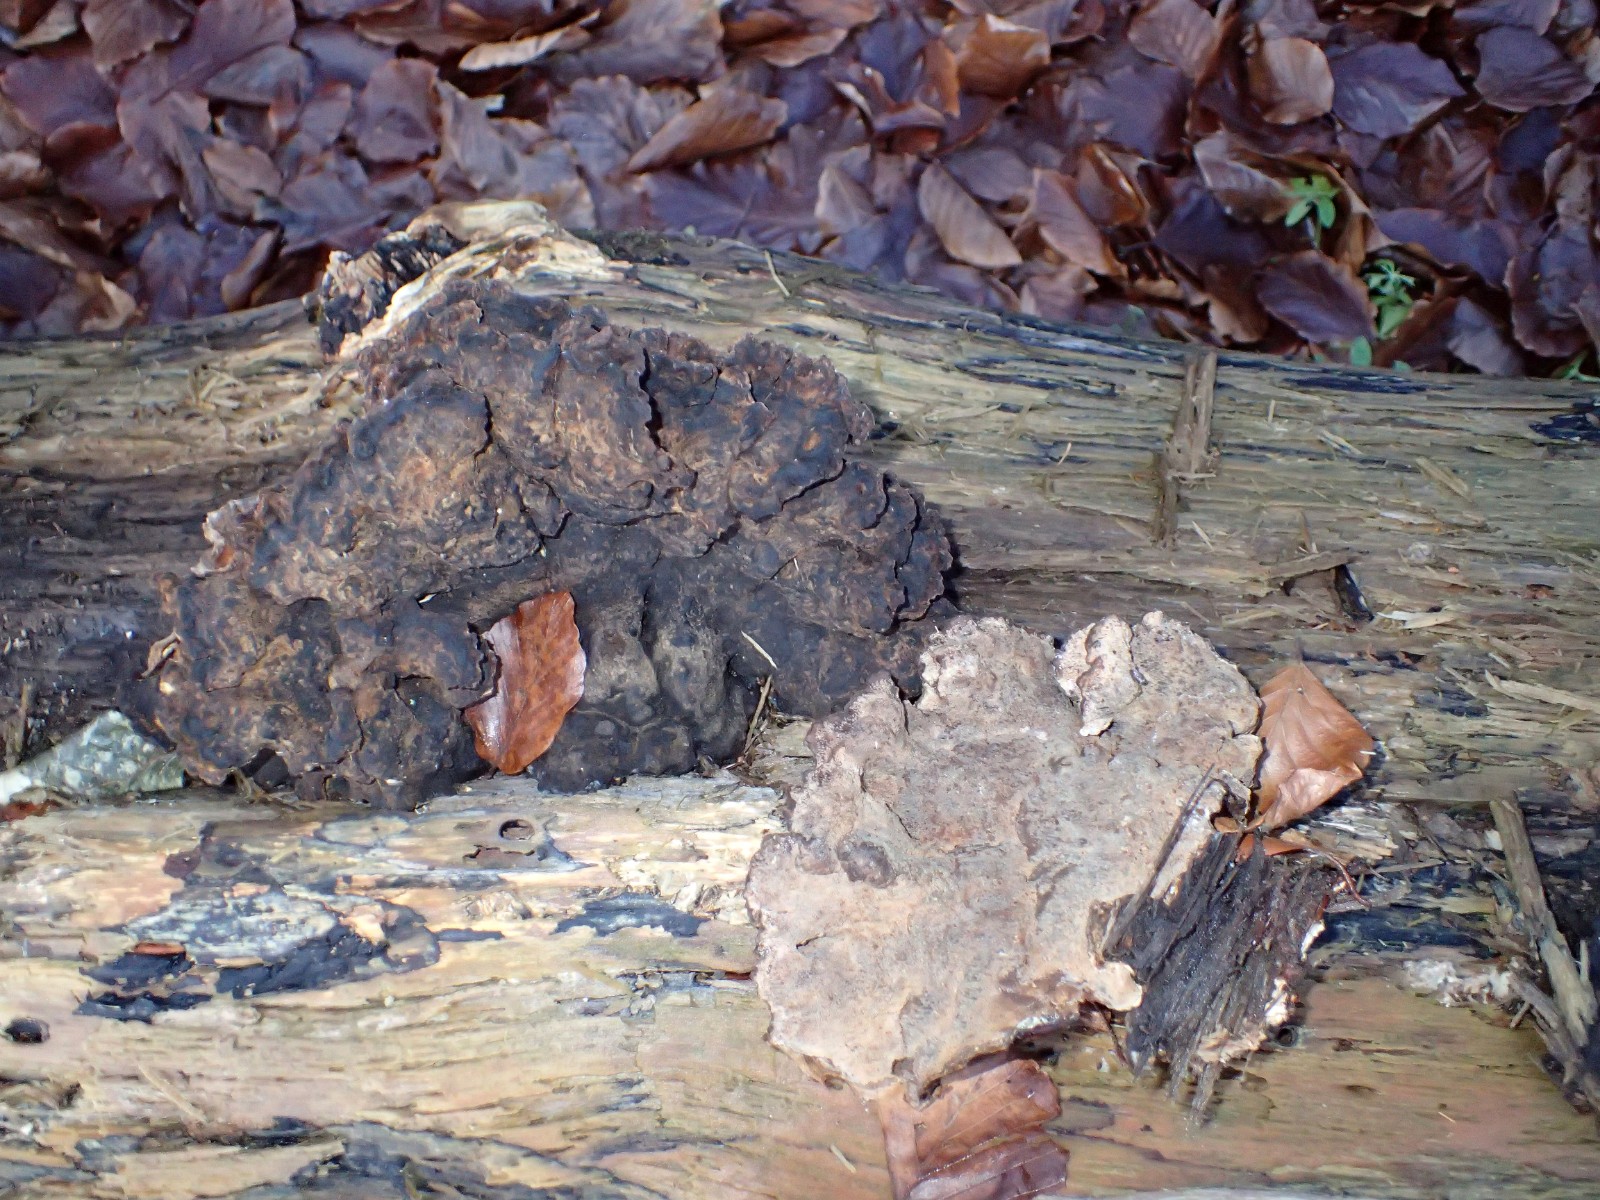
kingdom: Fungi
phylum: Basidiomycota
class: Agaricomycetes
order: Polyporales
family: Ischnodermataceae
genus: Ischnoderma
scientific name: Ischnoderma benzoinum
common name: gran-tjæreporesvamp
